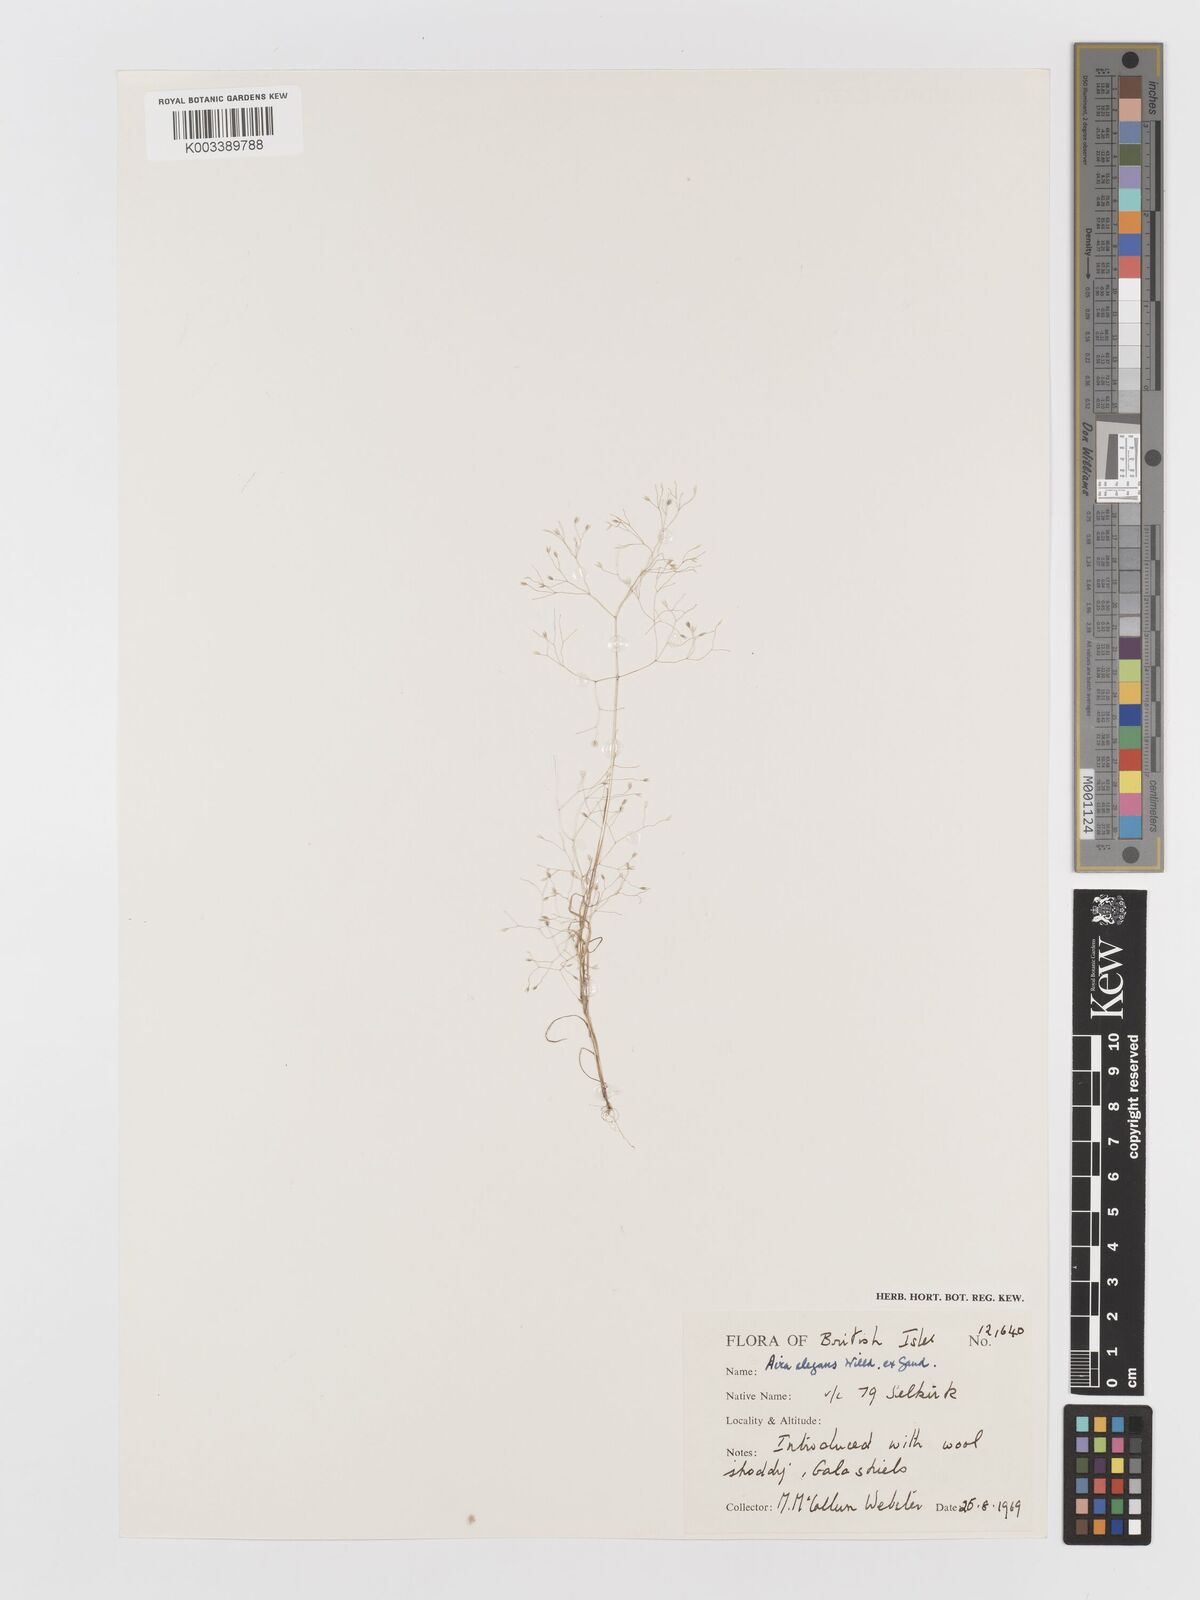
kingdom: Plantae
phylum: Tracheophyta
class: Liliopsida
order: Poales
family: Poaceae
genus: Aira
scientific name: Aira elegans
